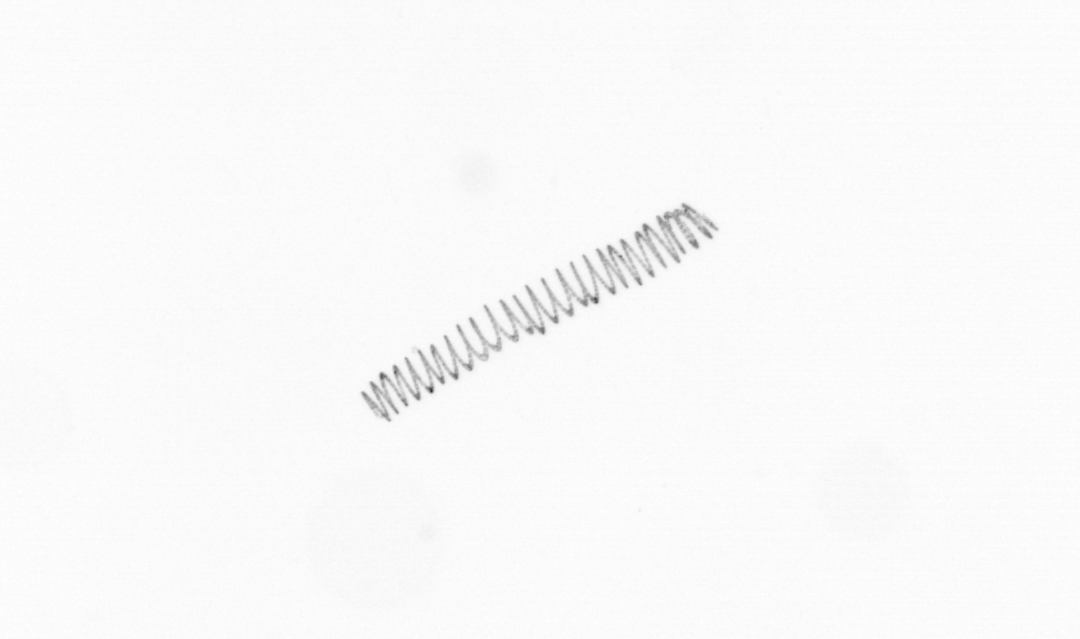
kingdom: Chromista
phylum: Ochrophyta
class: Bacillariophyceae
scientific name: Bacillariophyceae
